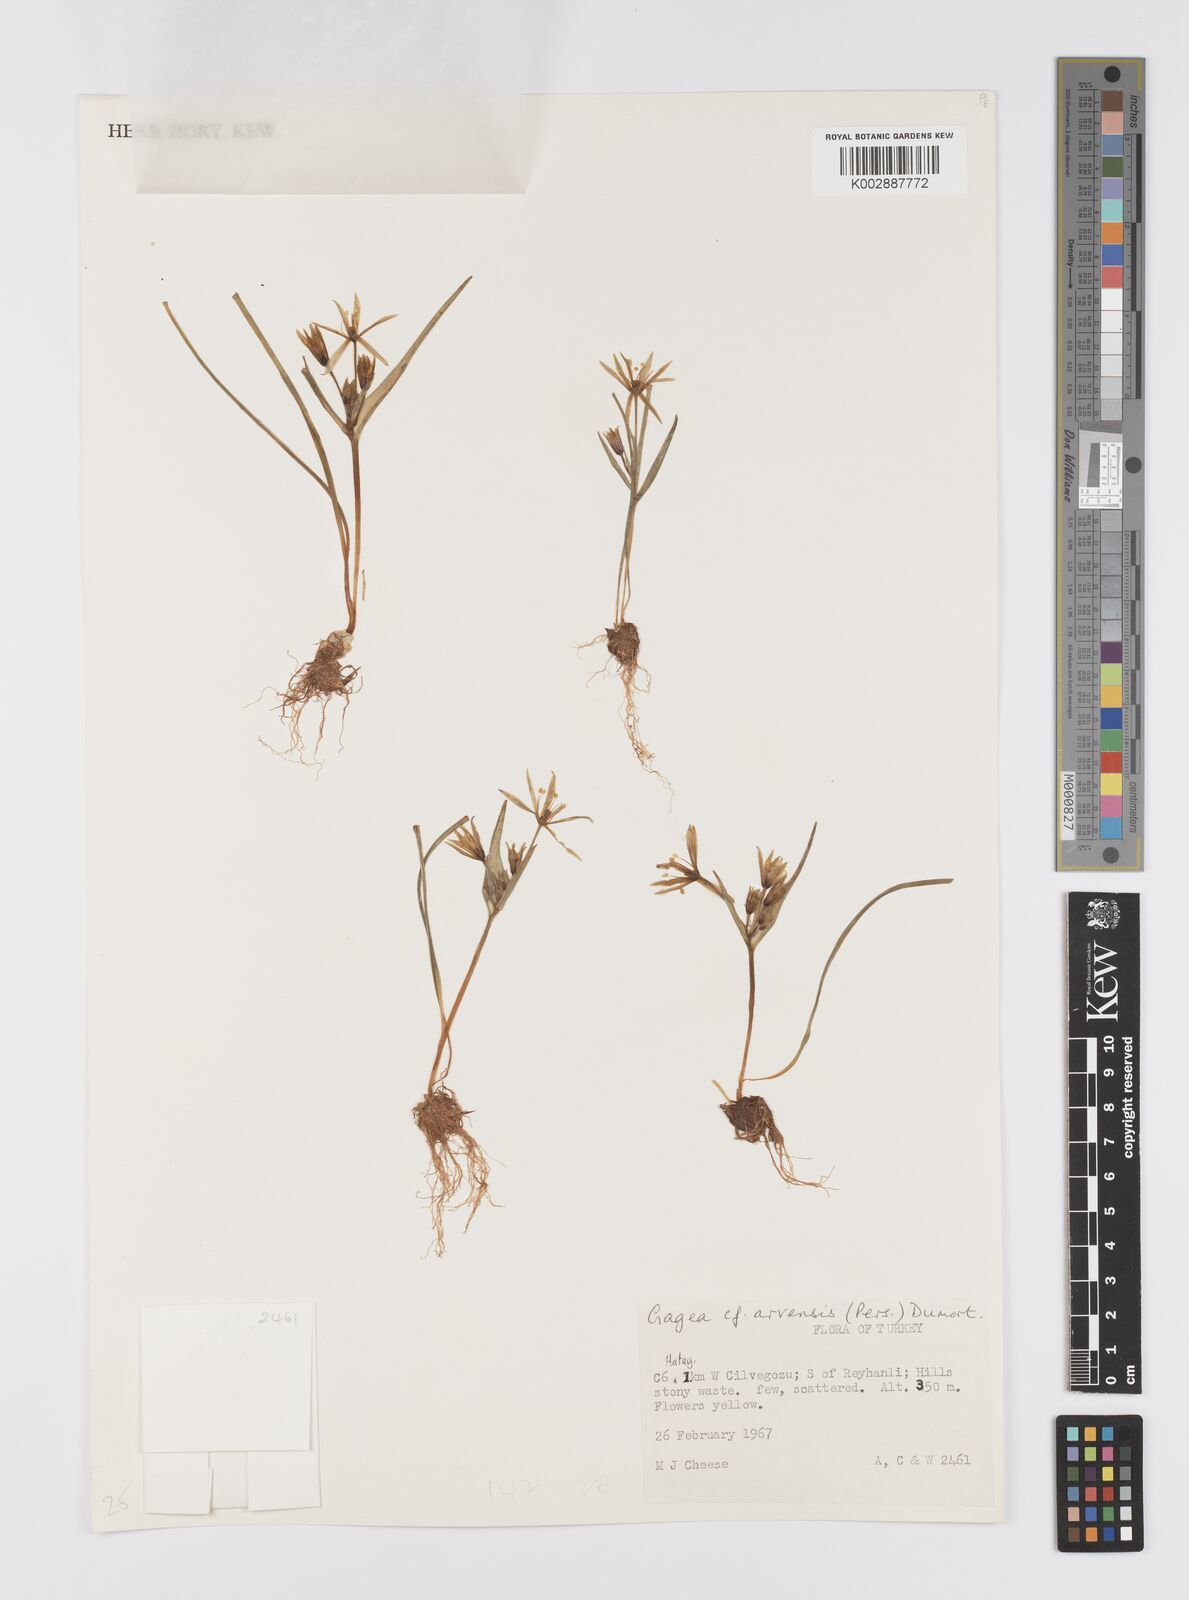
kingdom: Plantae
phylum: Tracheophyta
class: Liliopsida
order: Liliales
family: Liliaceae
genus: Gagea
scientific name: Gagea villosa
